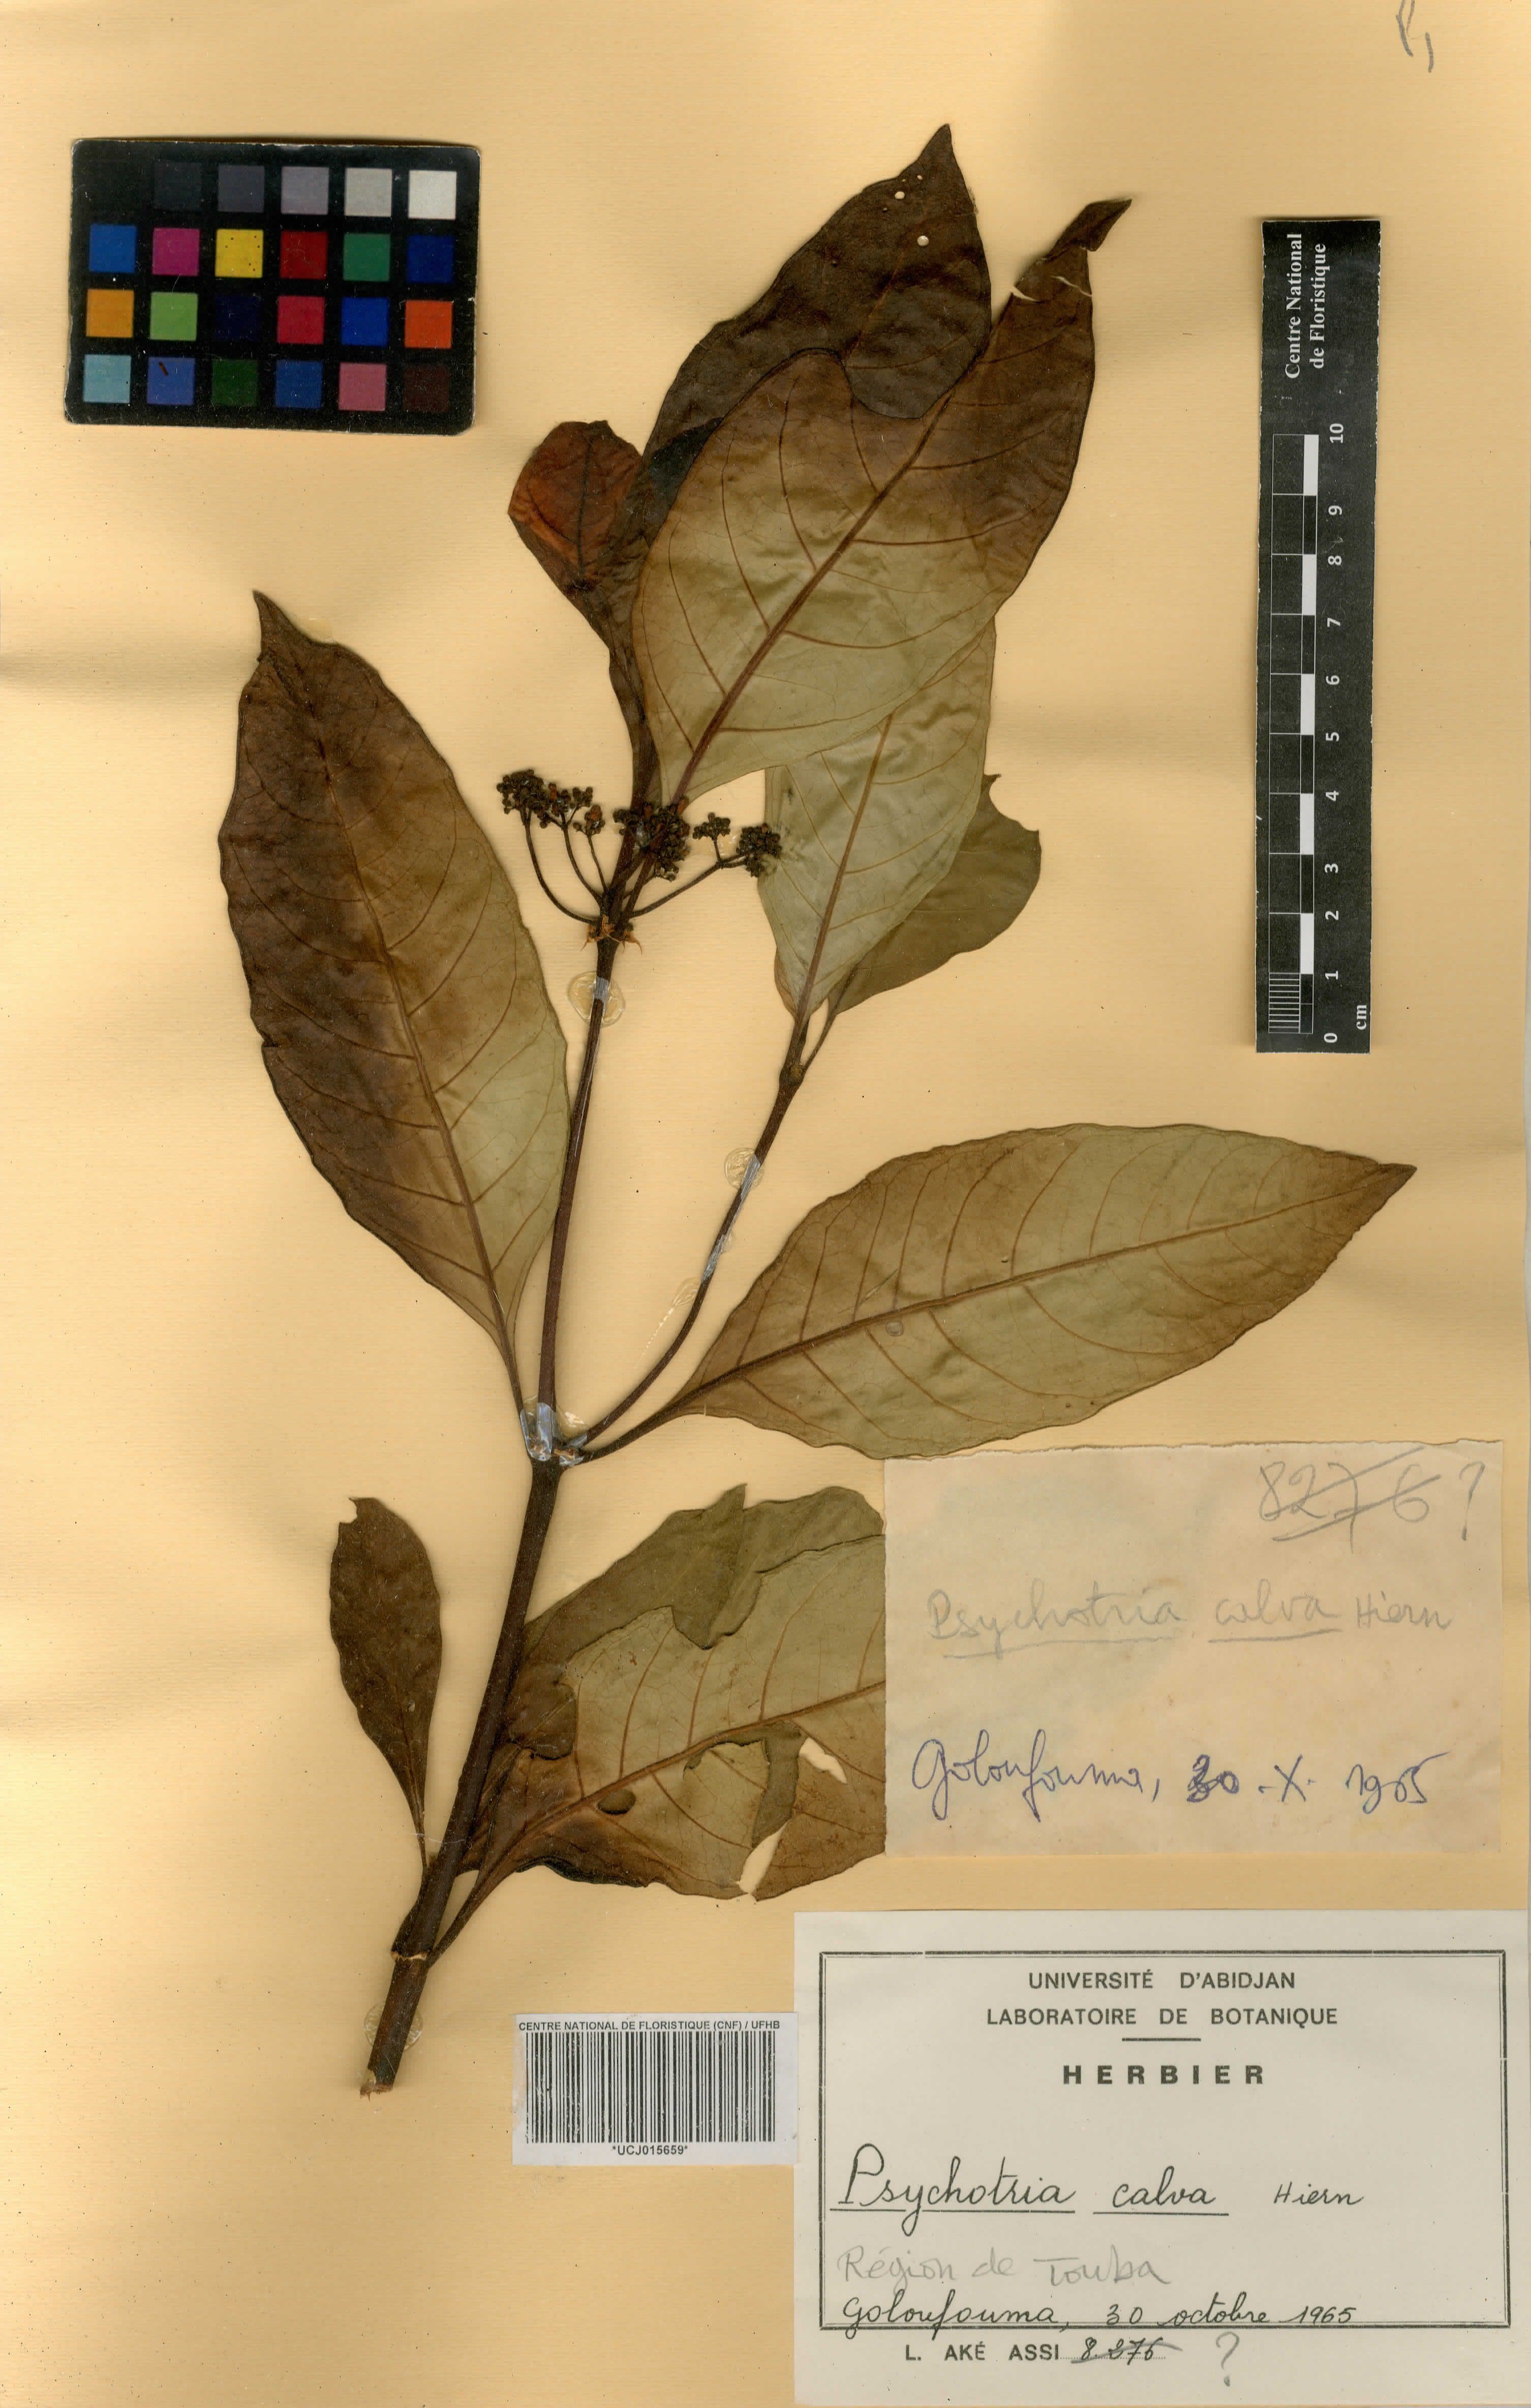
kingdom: Plantae
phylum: Tracheophyta
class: Magnoliopsida
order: Gentianales
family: Rubiaceae
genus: Psychotria
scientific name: Psychotria calva
